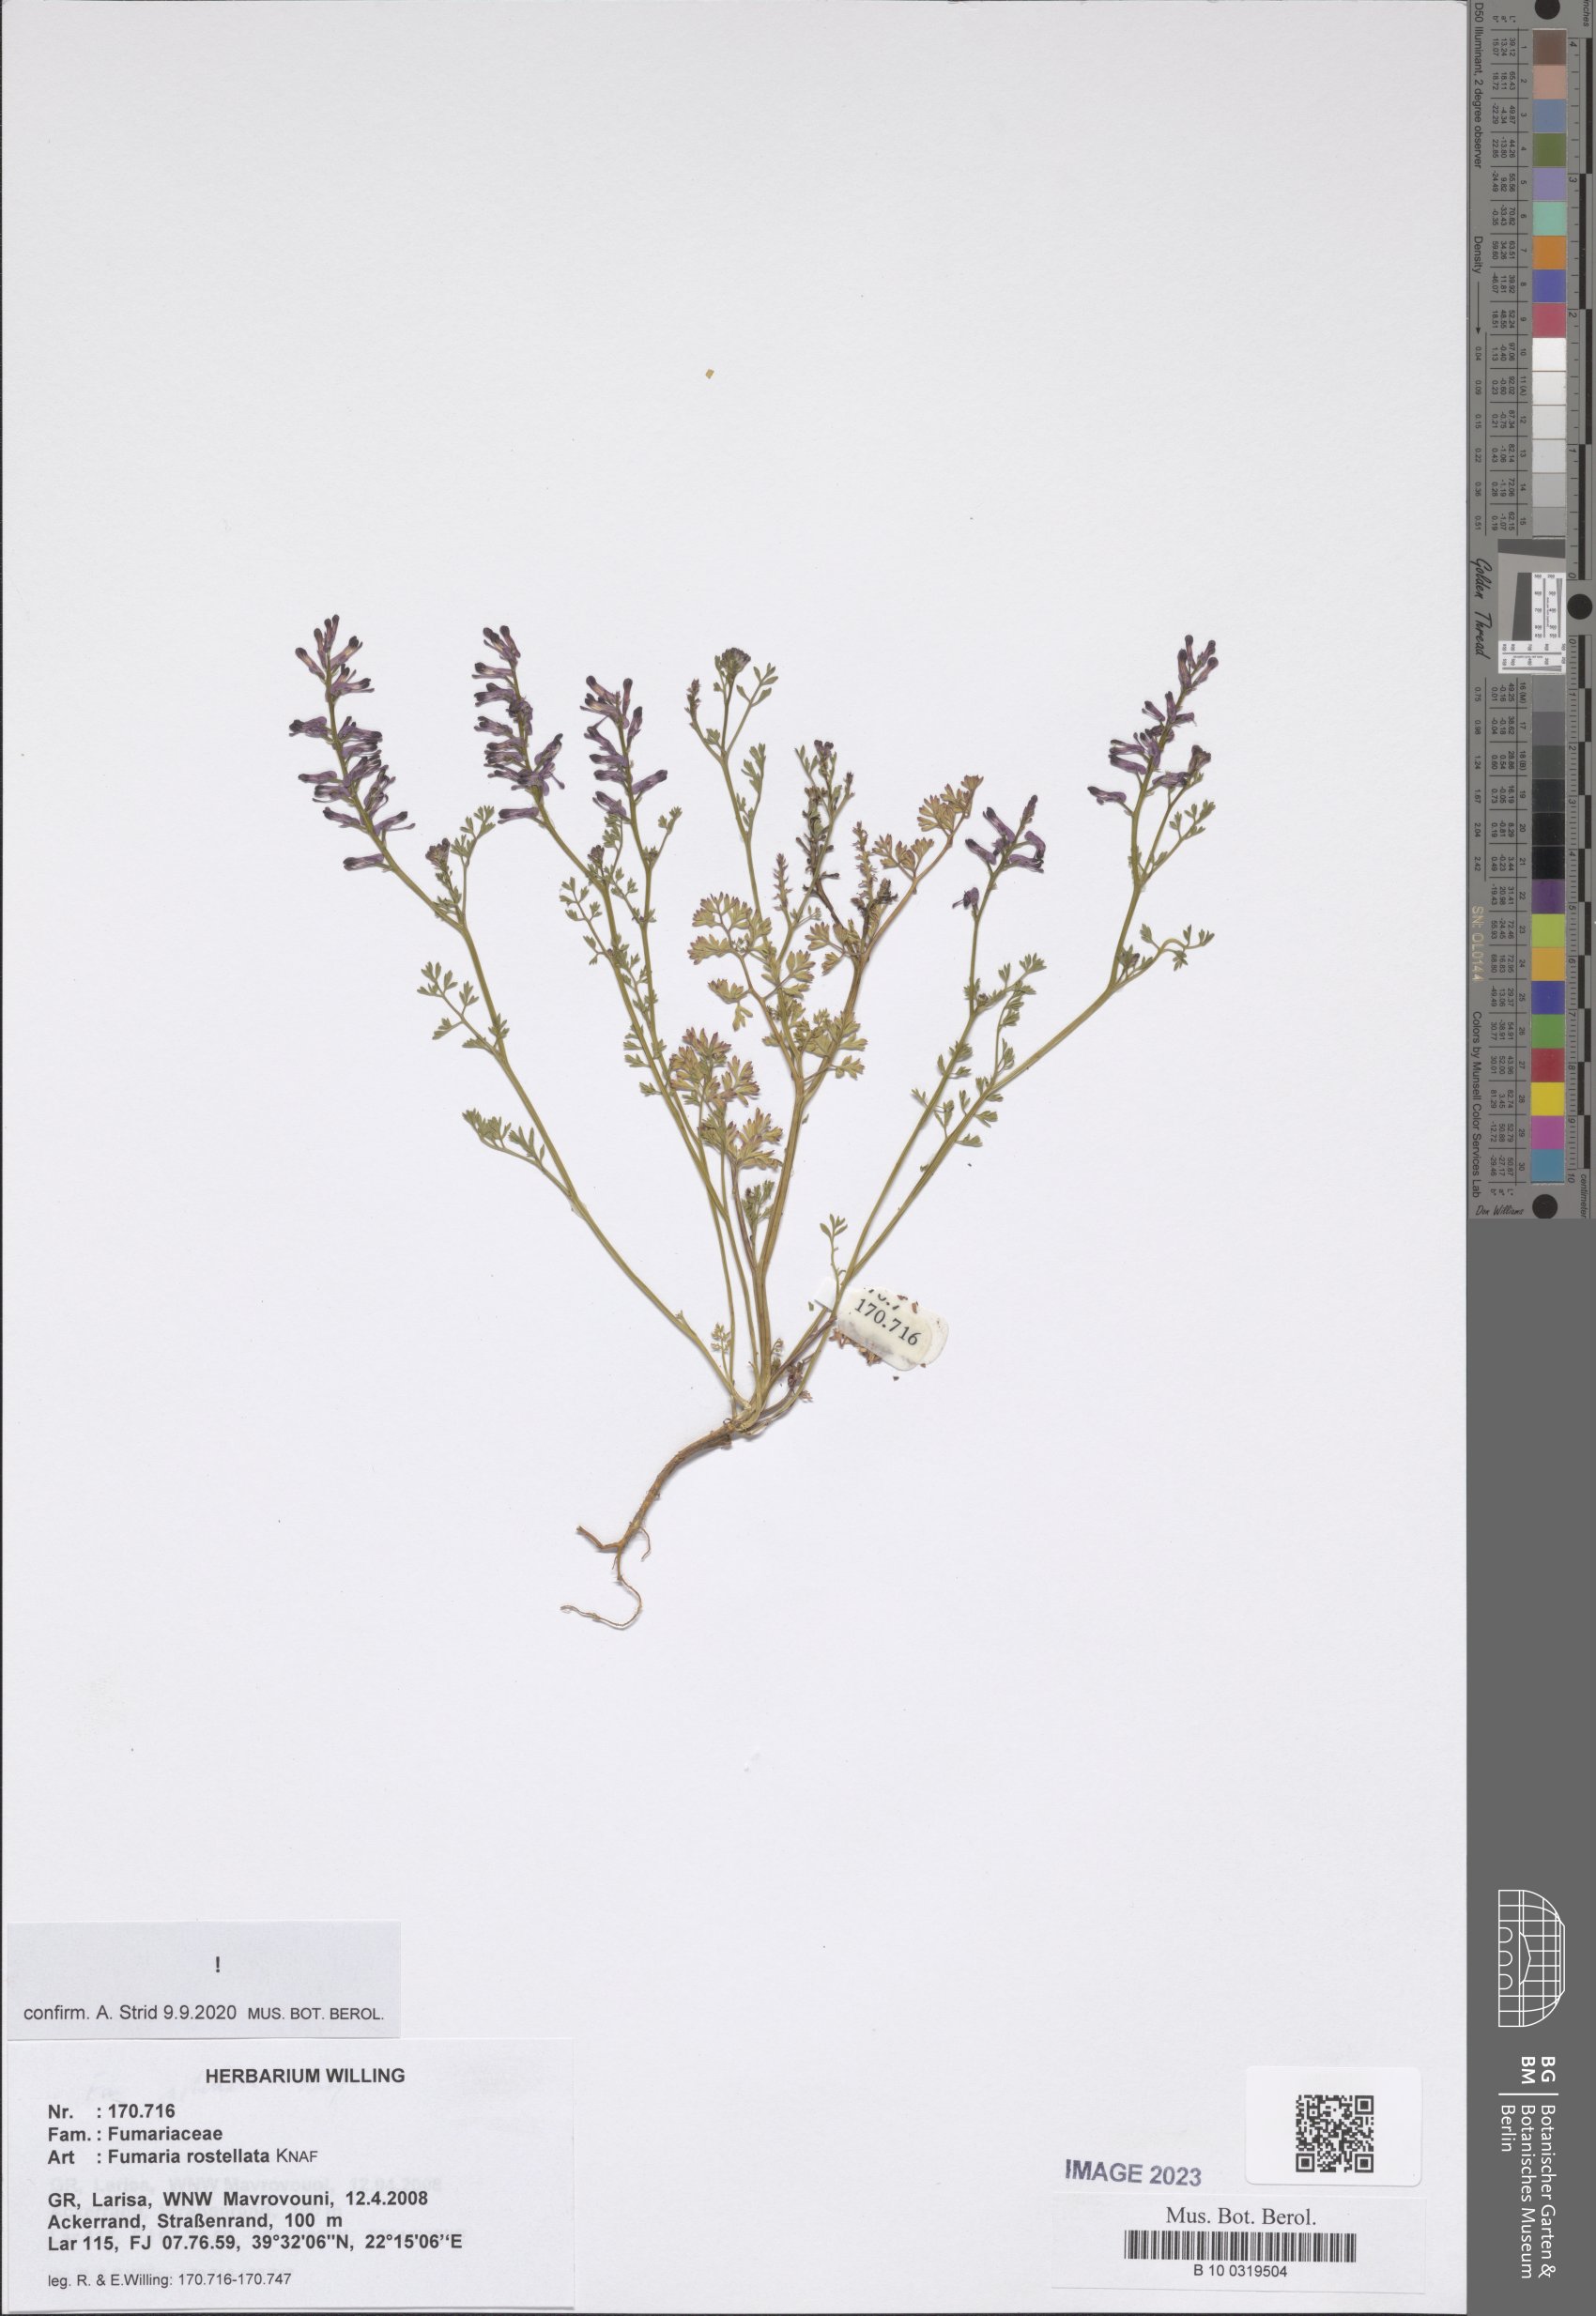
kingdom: Plantae
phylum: Tracheophyta
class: Magnoliopsida
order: Ranunculales
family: Papaveraceae
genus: Fumaria
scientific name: Fumaria rostellata
